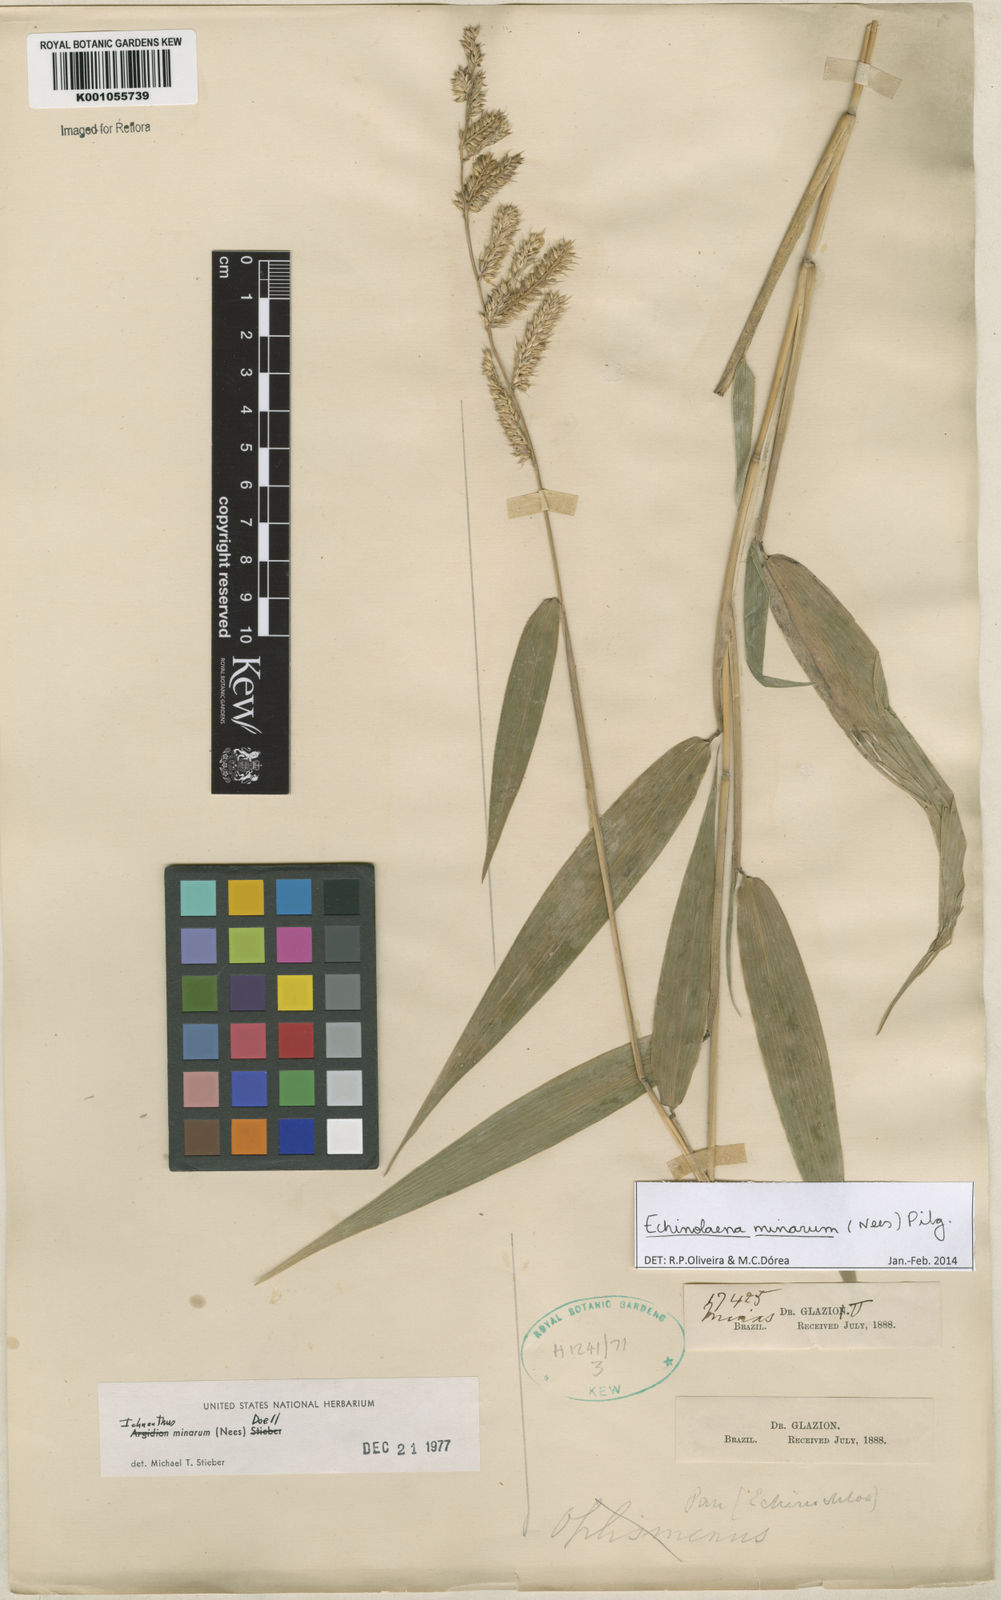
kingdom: Plantae
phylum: Tracheophyta
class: Liliopsida
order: Poales
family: Poaceae
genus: Oedochloa
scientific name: Oedochloa minarum
